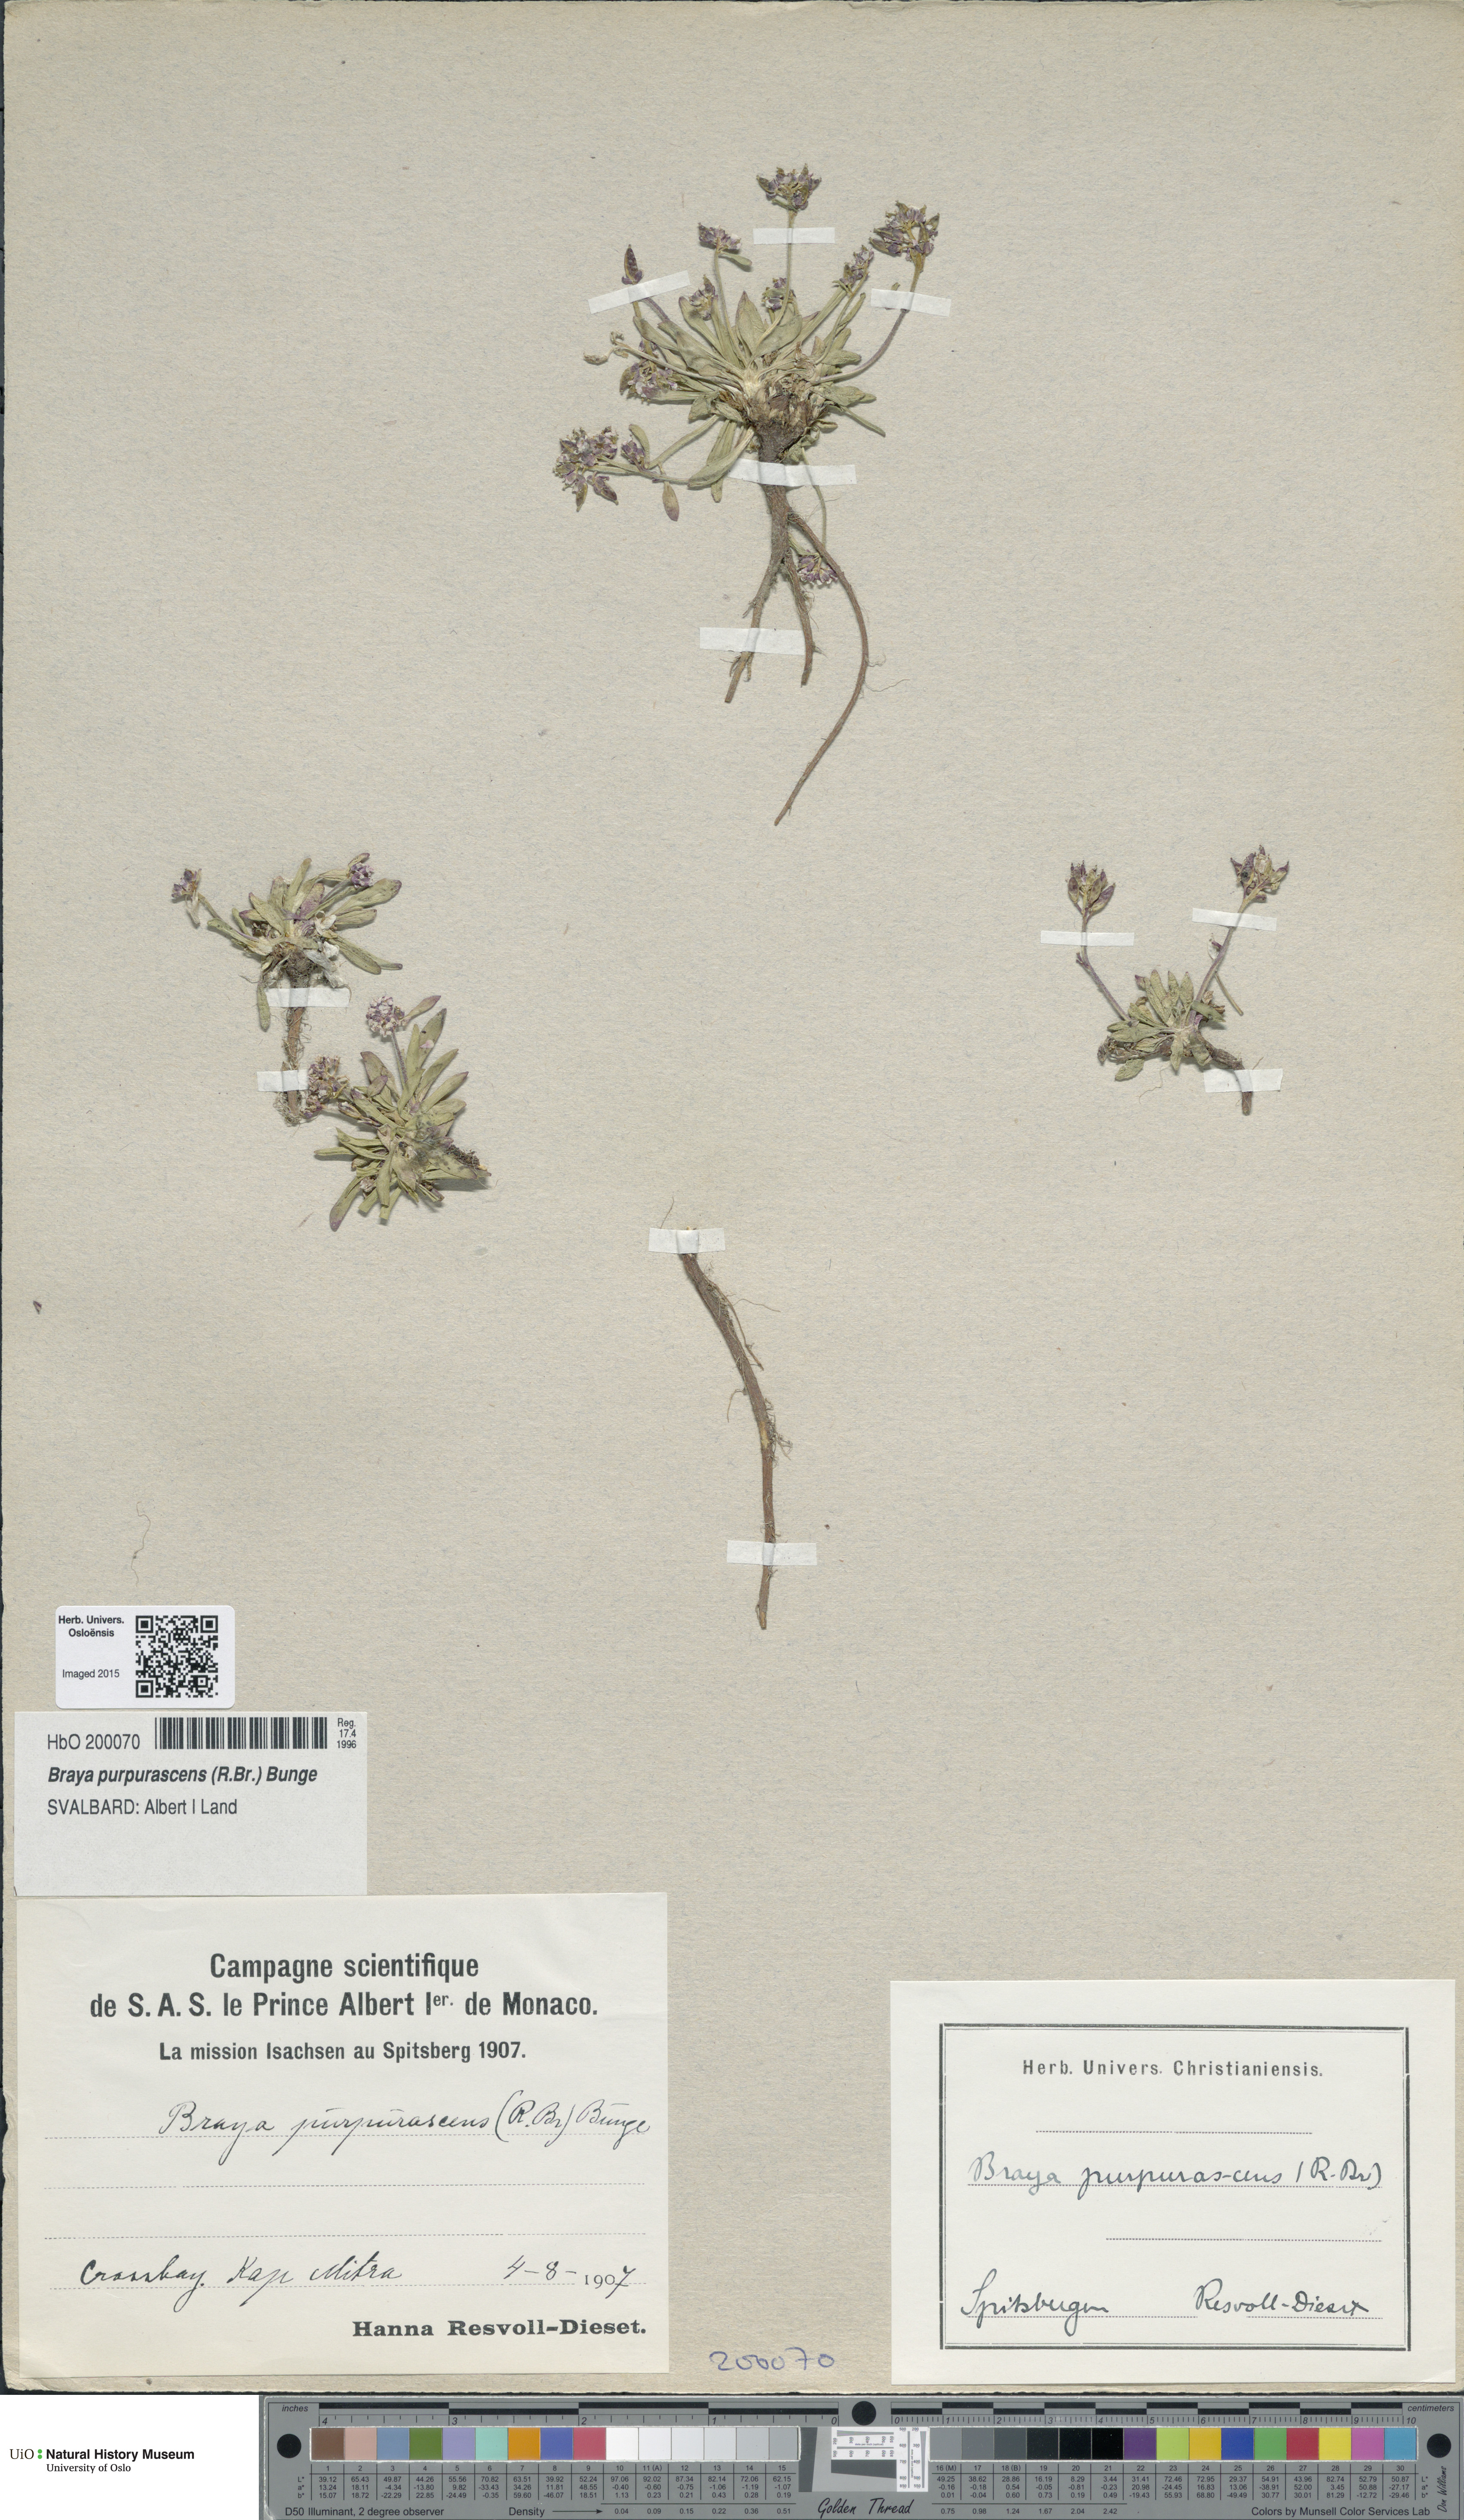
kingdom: Plantae
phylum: Tracheophyta
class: Magnoliopsida
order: Brassicales
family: Brassicaceae
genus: Braya
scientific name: Braya purpurascens
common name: Alpine braya
